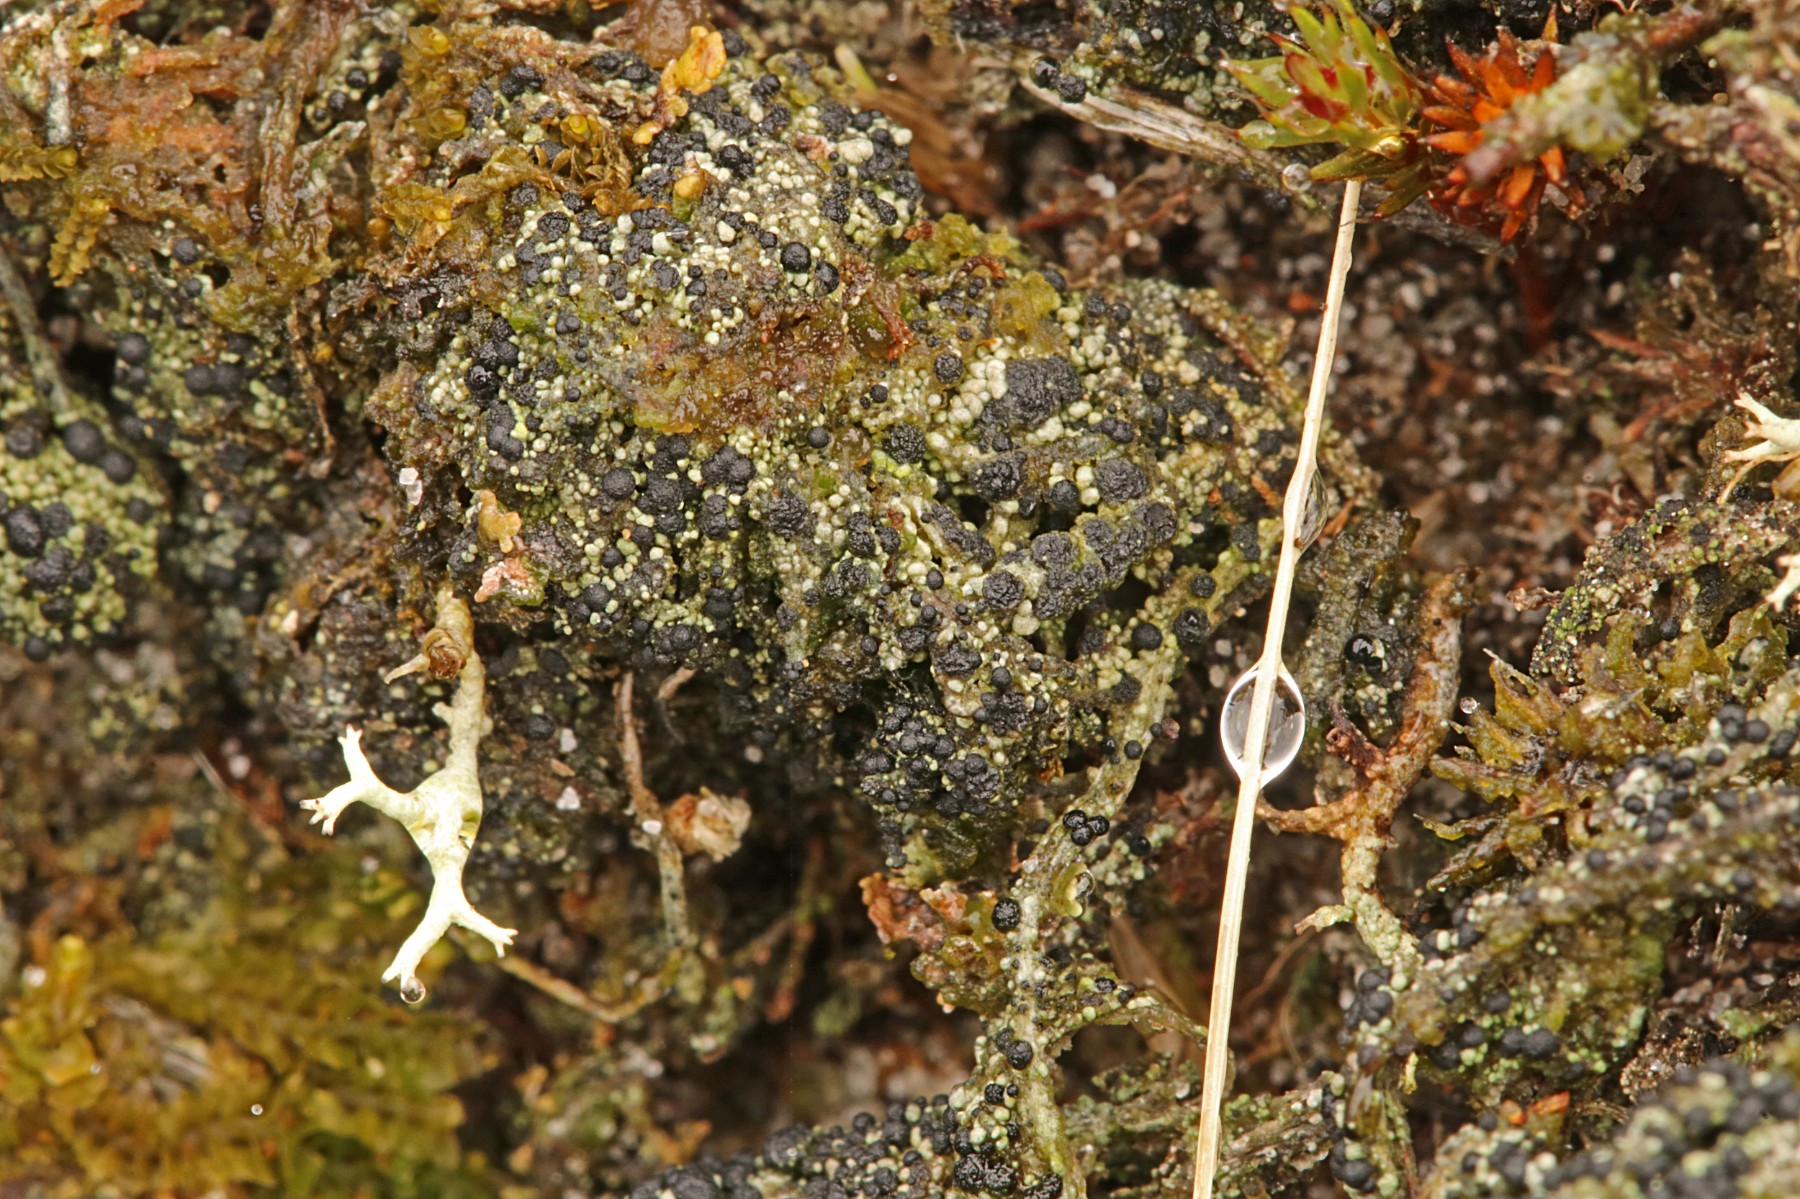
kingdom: Fungi
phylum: Ascomycota
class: Lecanoromycetes
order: Lecanorales
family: Byssolomataceae
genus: Micarea
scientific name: Micarea lignaria
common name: tørve-knaplav
